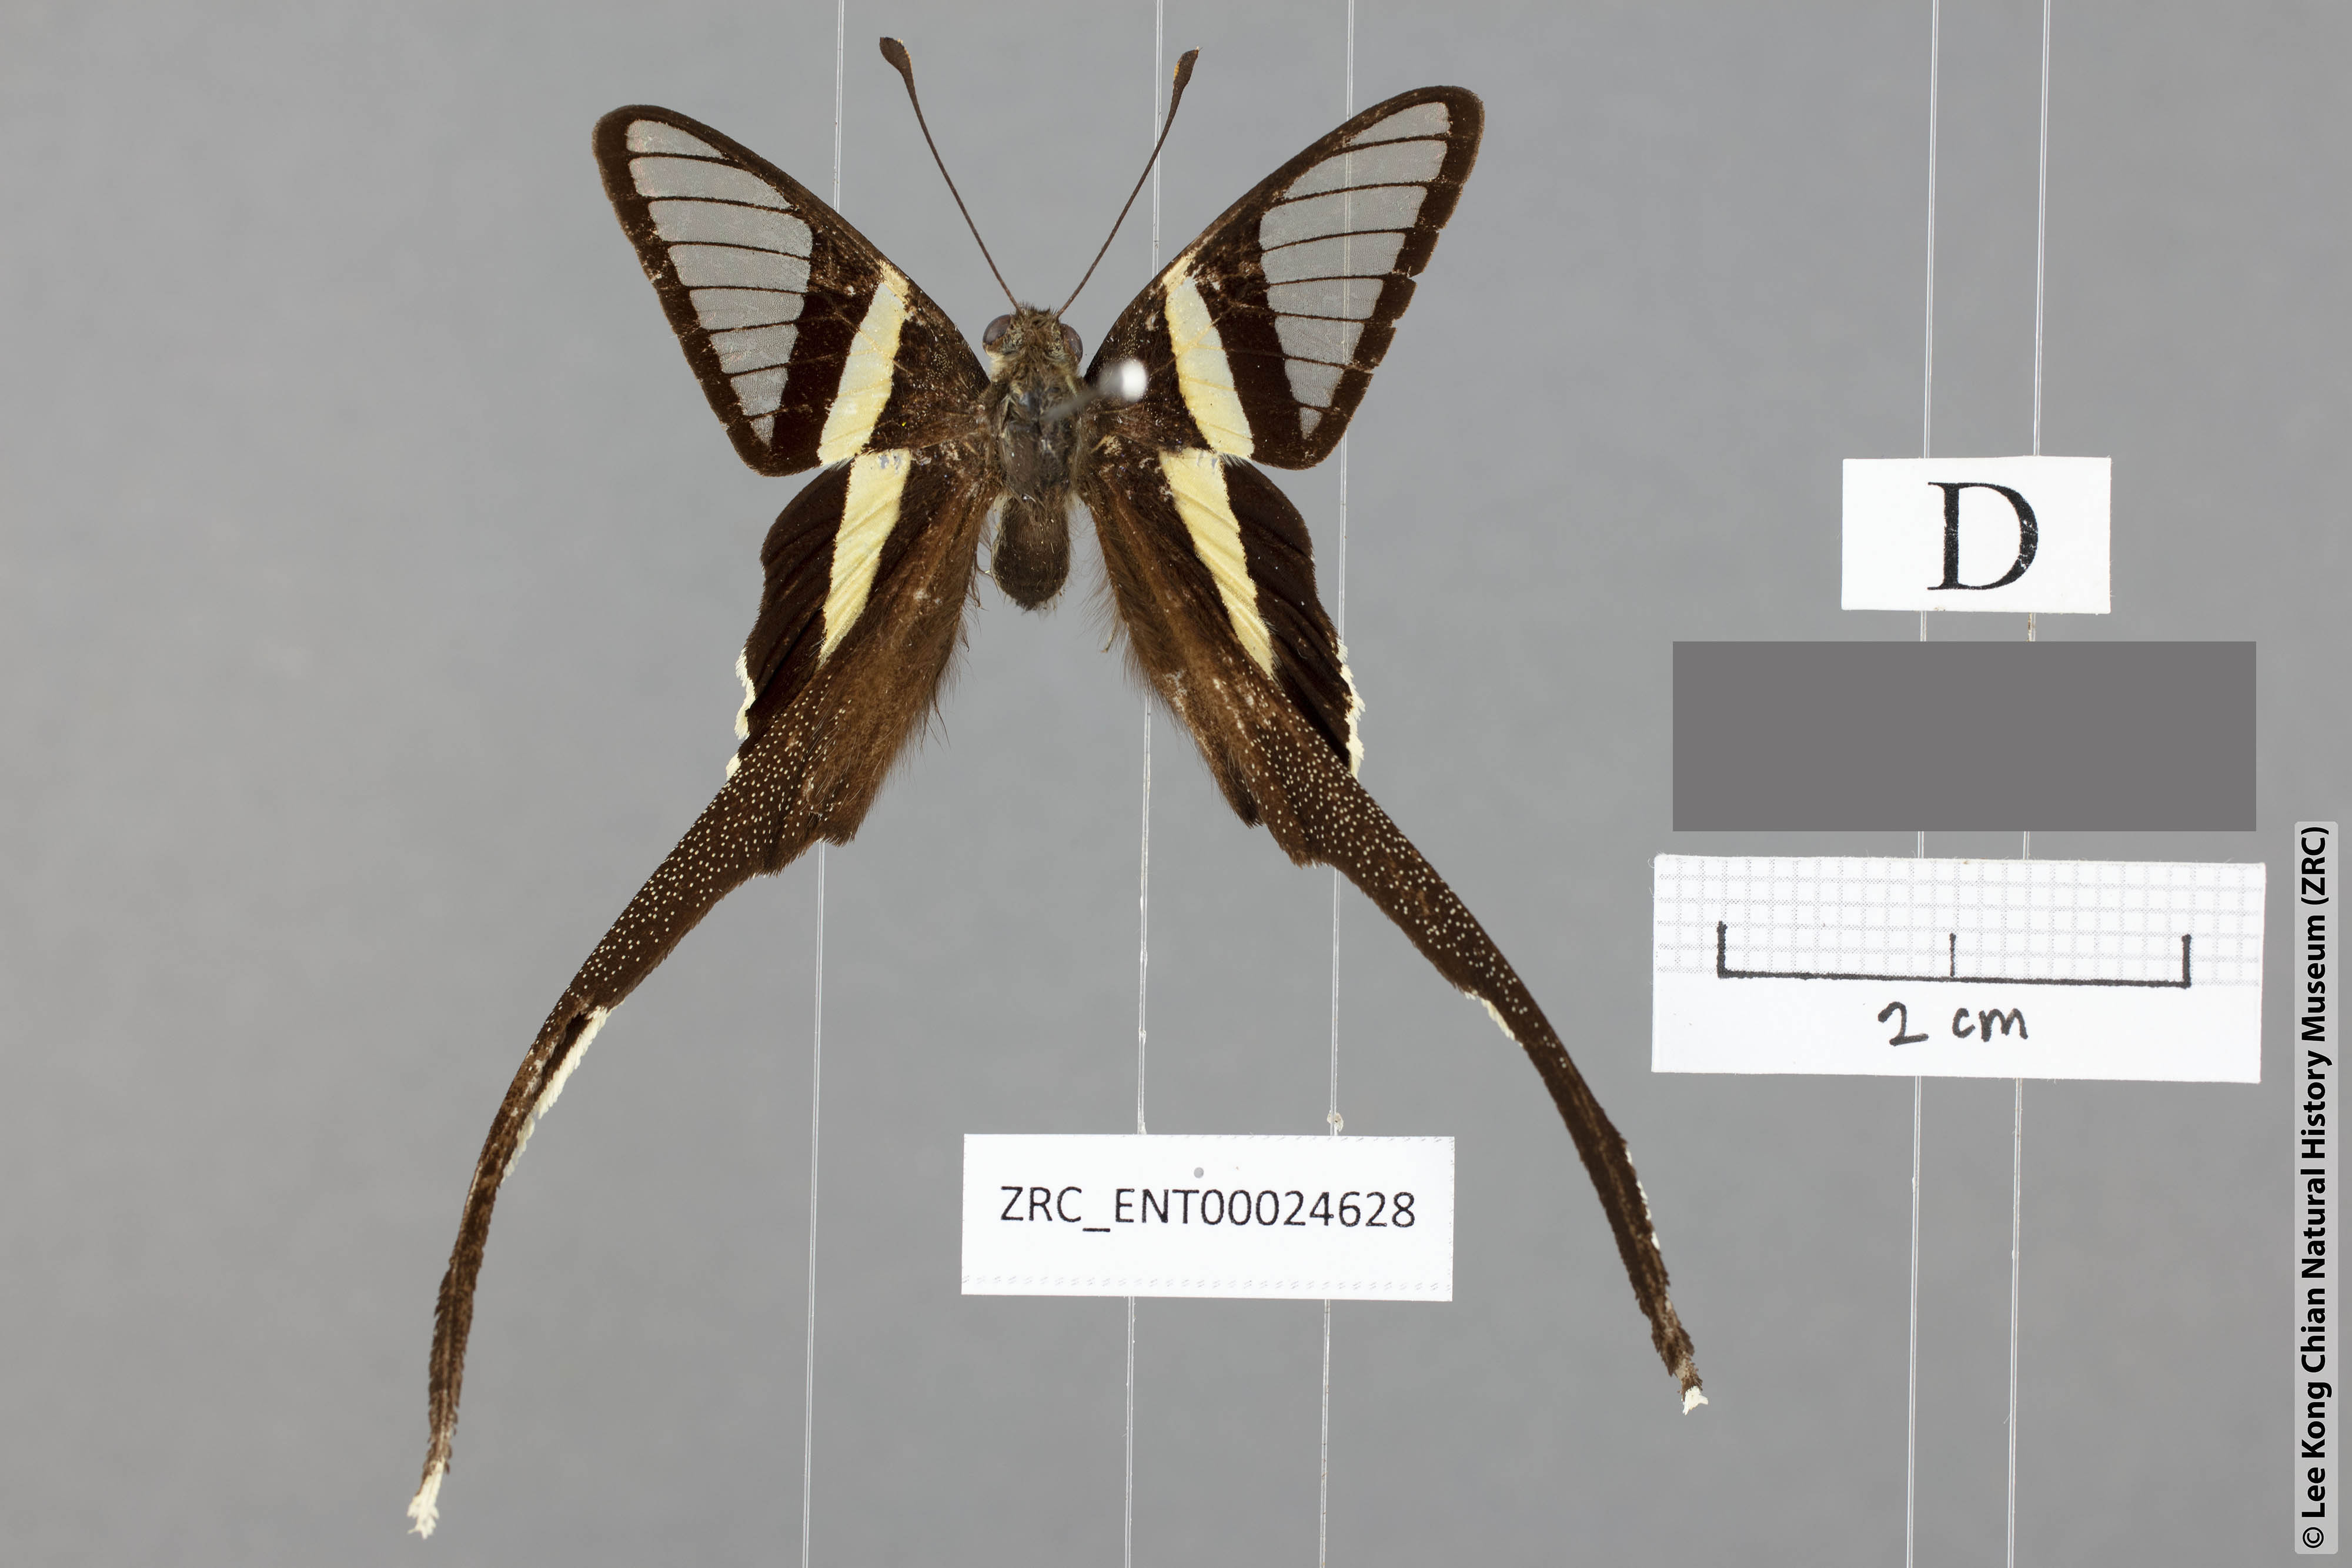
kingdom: Animalia
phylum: Arthropoda
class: Insecta
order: Lepidoptera
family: Papilionidae
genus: Lamproptera
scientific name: Lamproptera meges
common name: Green dragontail
